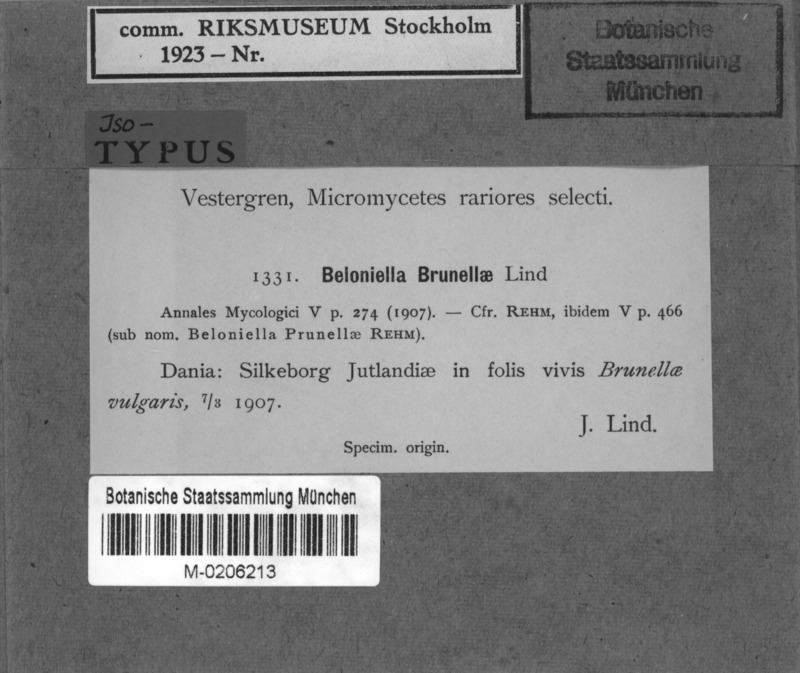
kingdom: Fungi
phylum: Ascomycota
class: Leotiomycetes
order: Helotiales
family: Drepanopezizaceae
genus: Leptotrochila
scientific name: Leptotrochila prunellae
